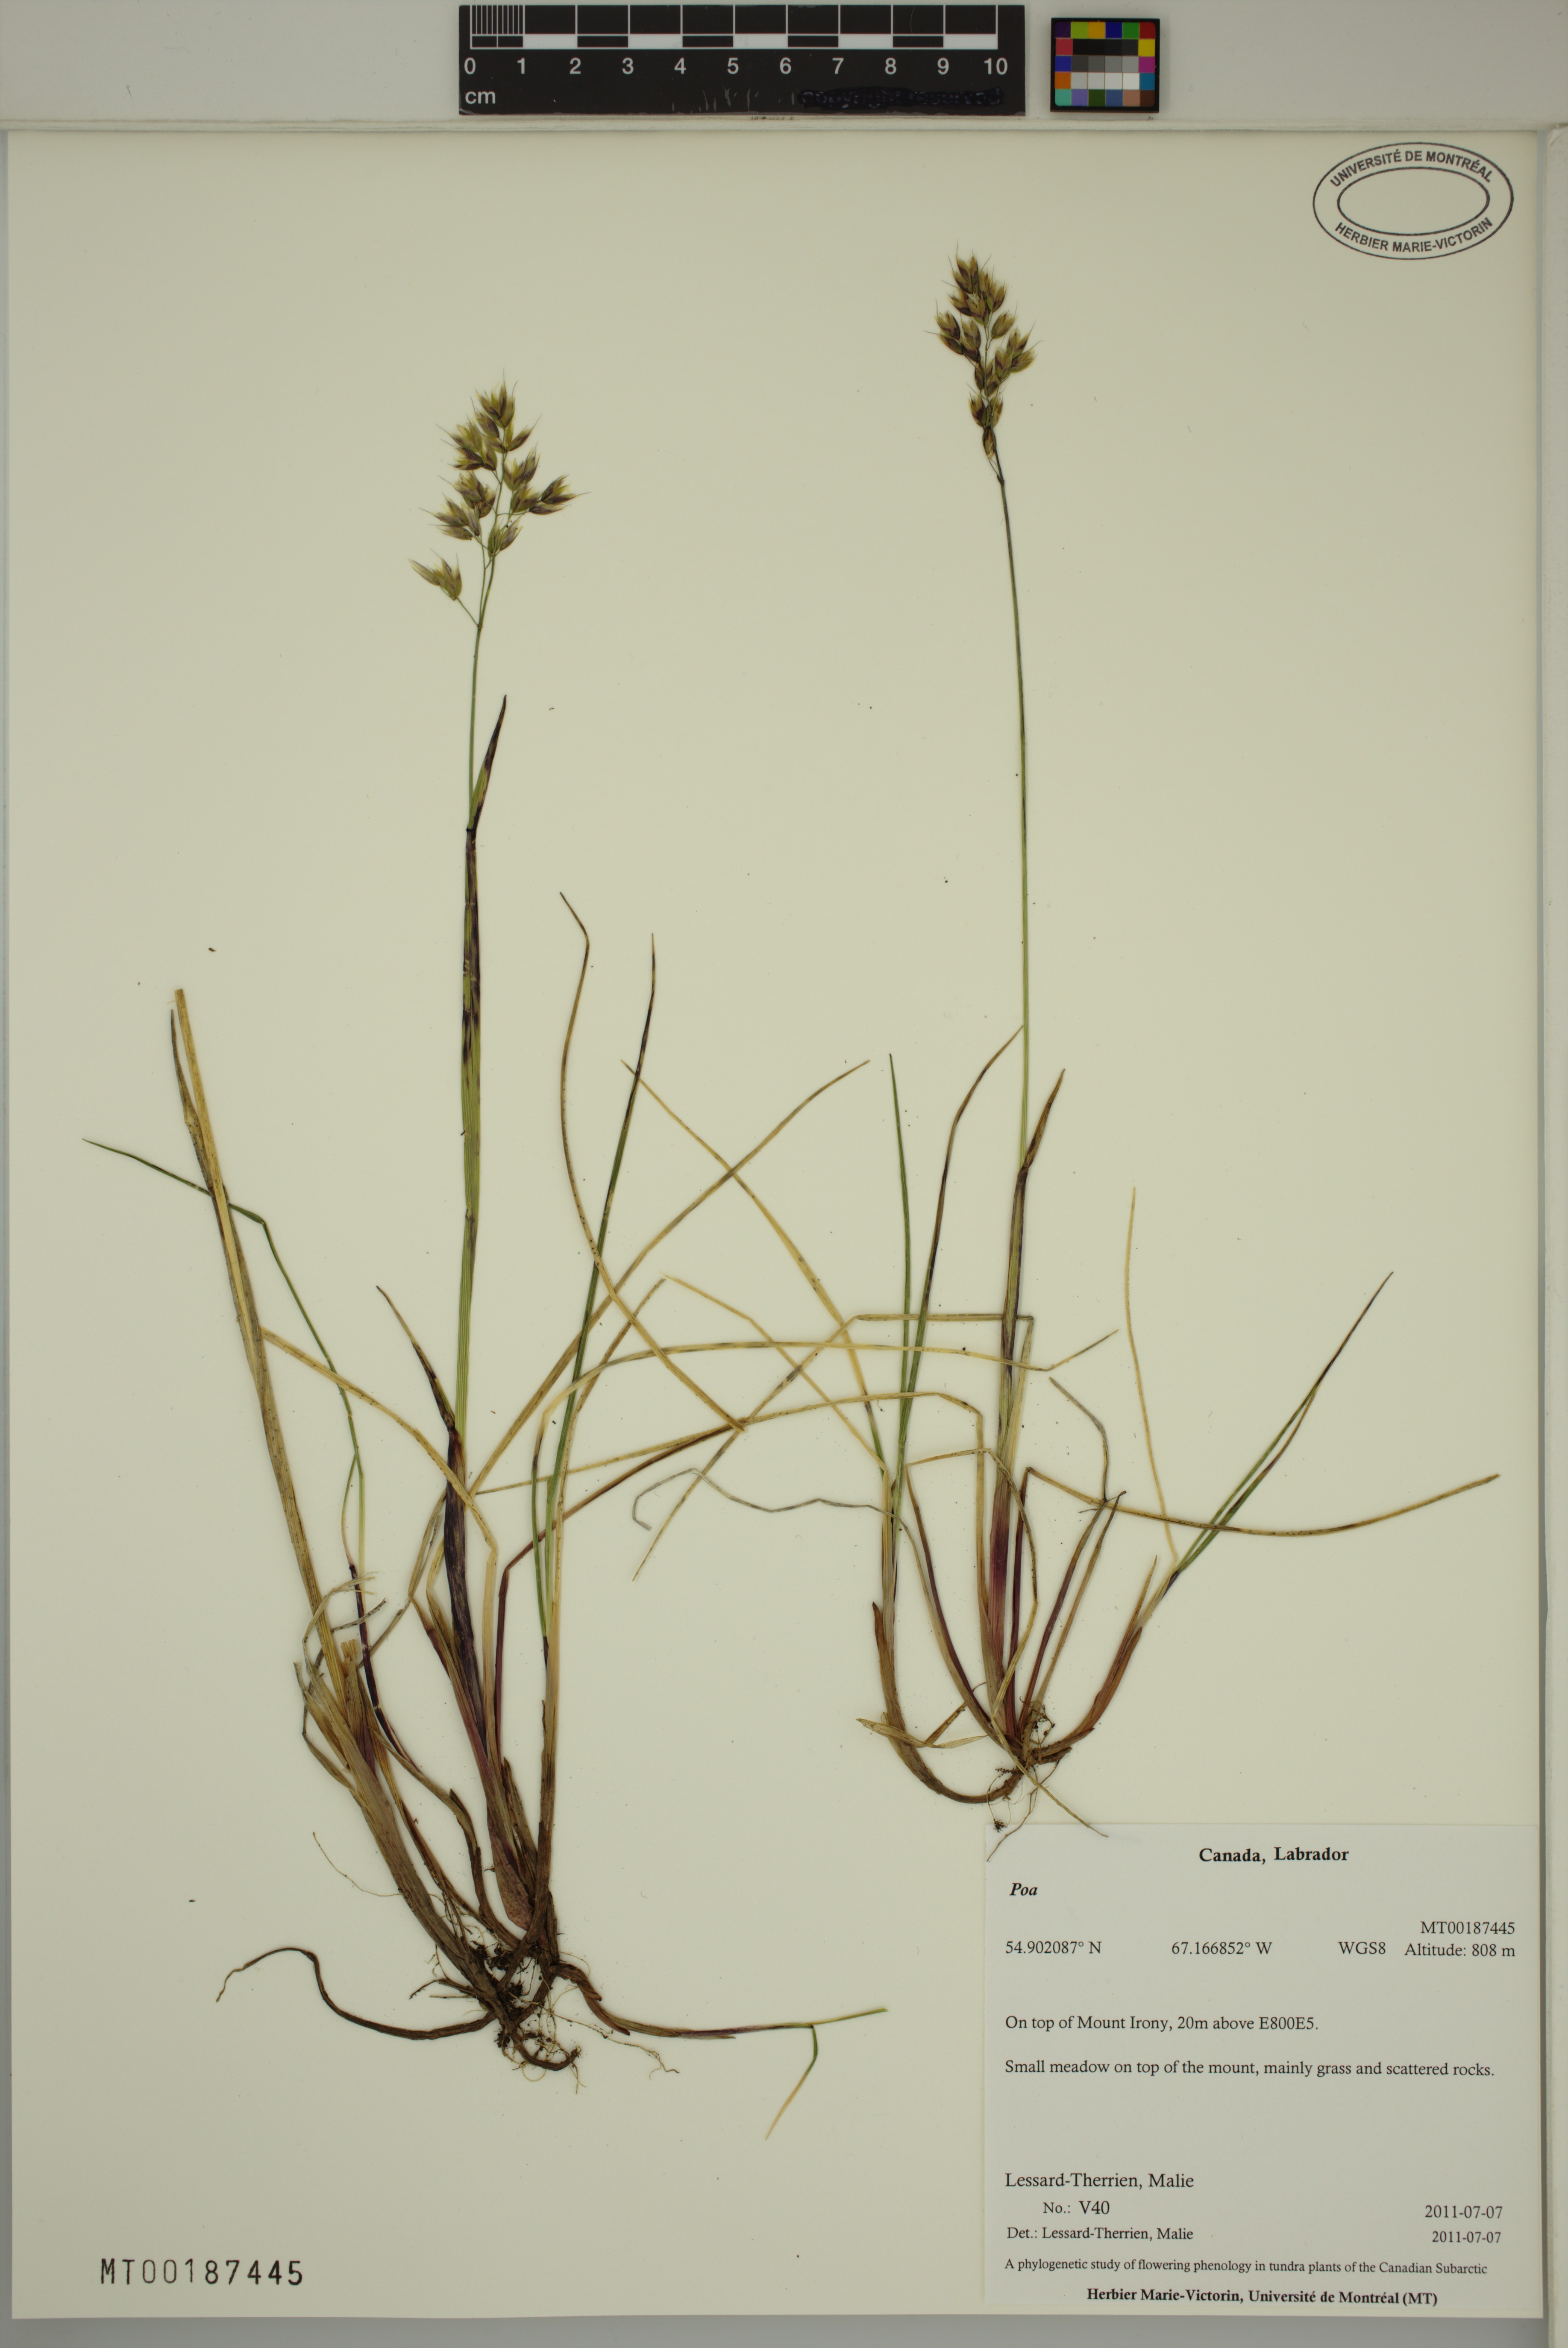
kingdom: Plantae
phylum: Tracheophyta
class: Liliopsida
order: Poales
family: Poaceae
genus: Anthoxanthum
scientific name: Anthoxanthum monticola
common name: Alpine sweetgrass
